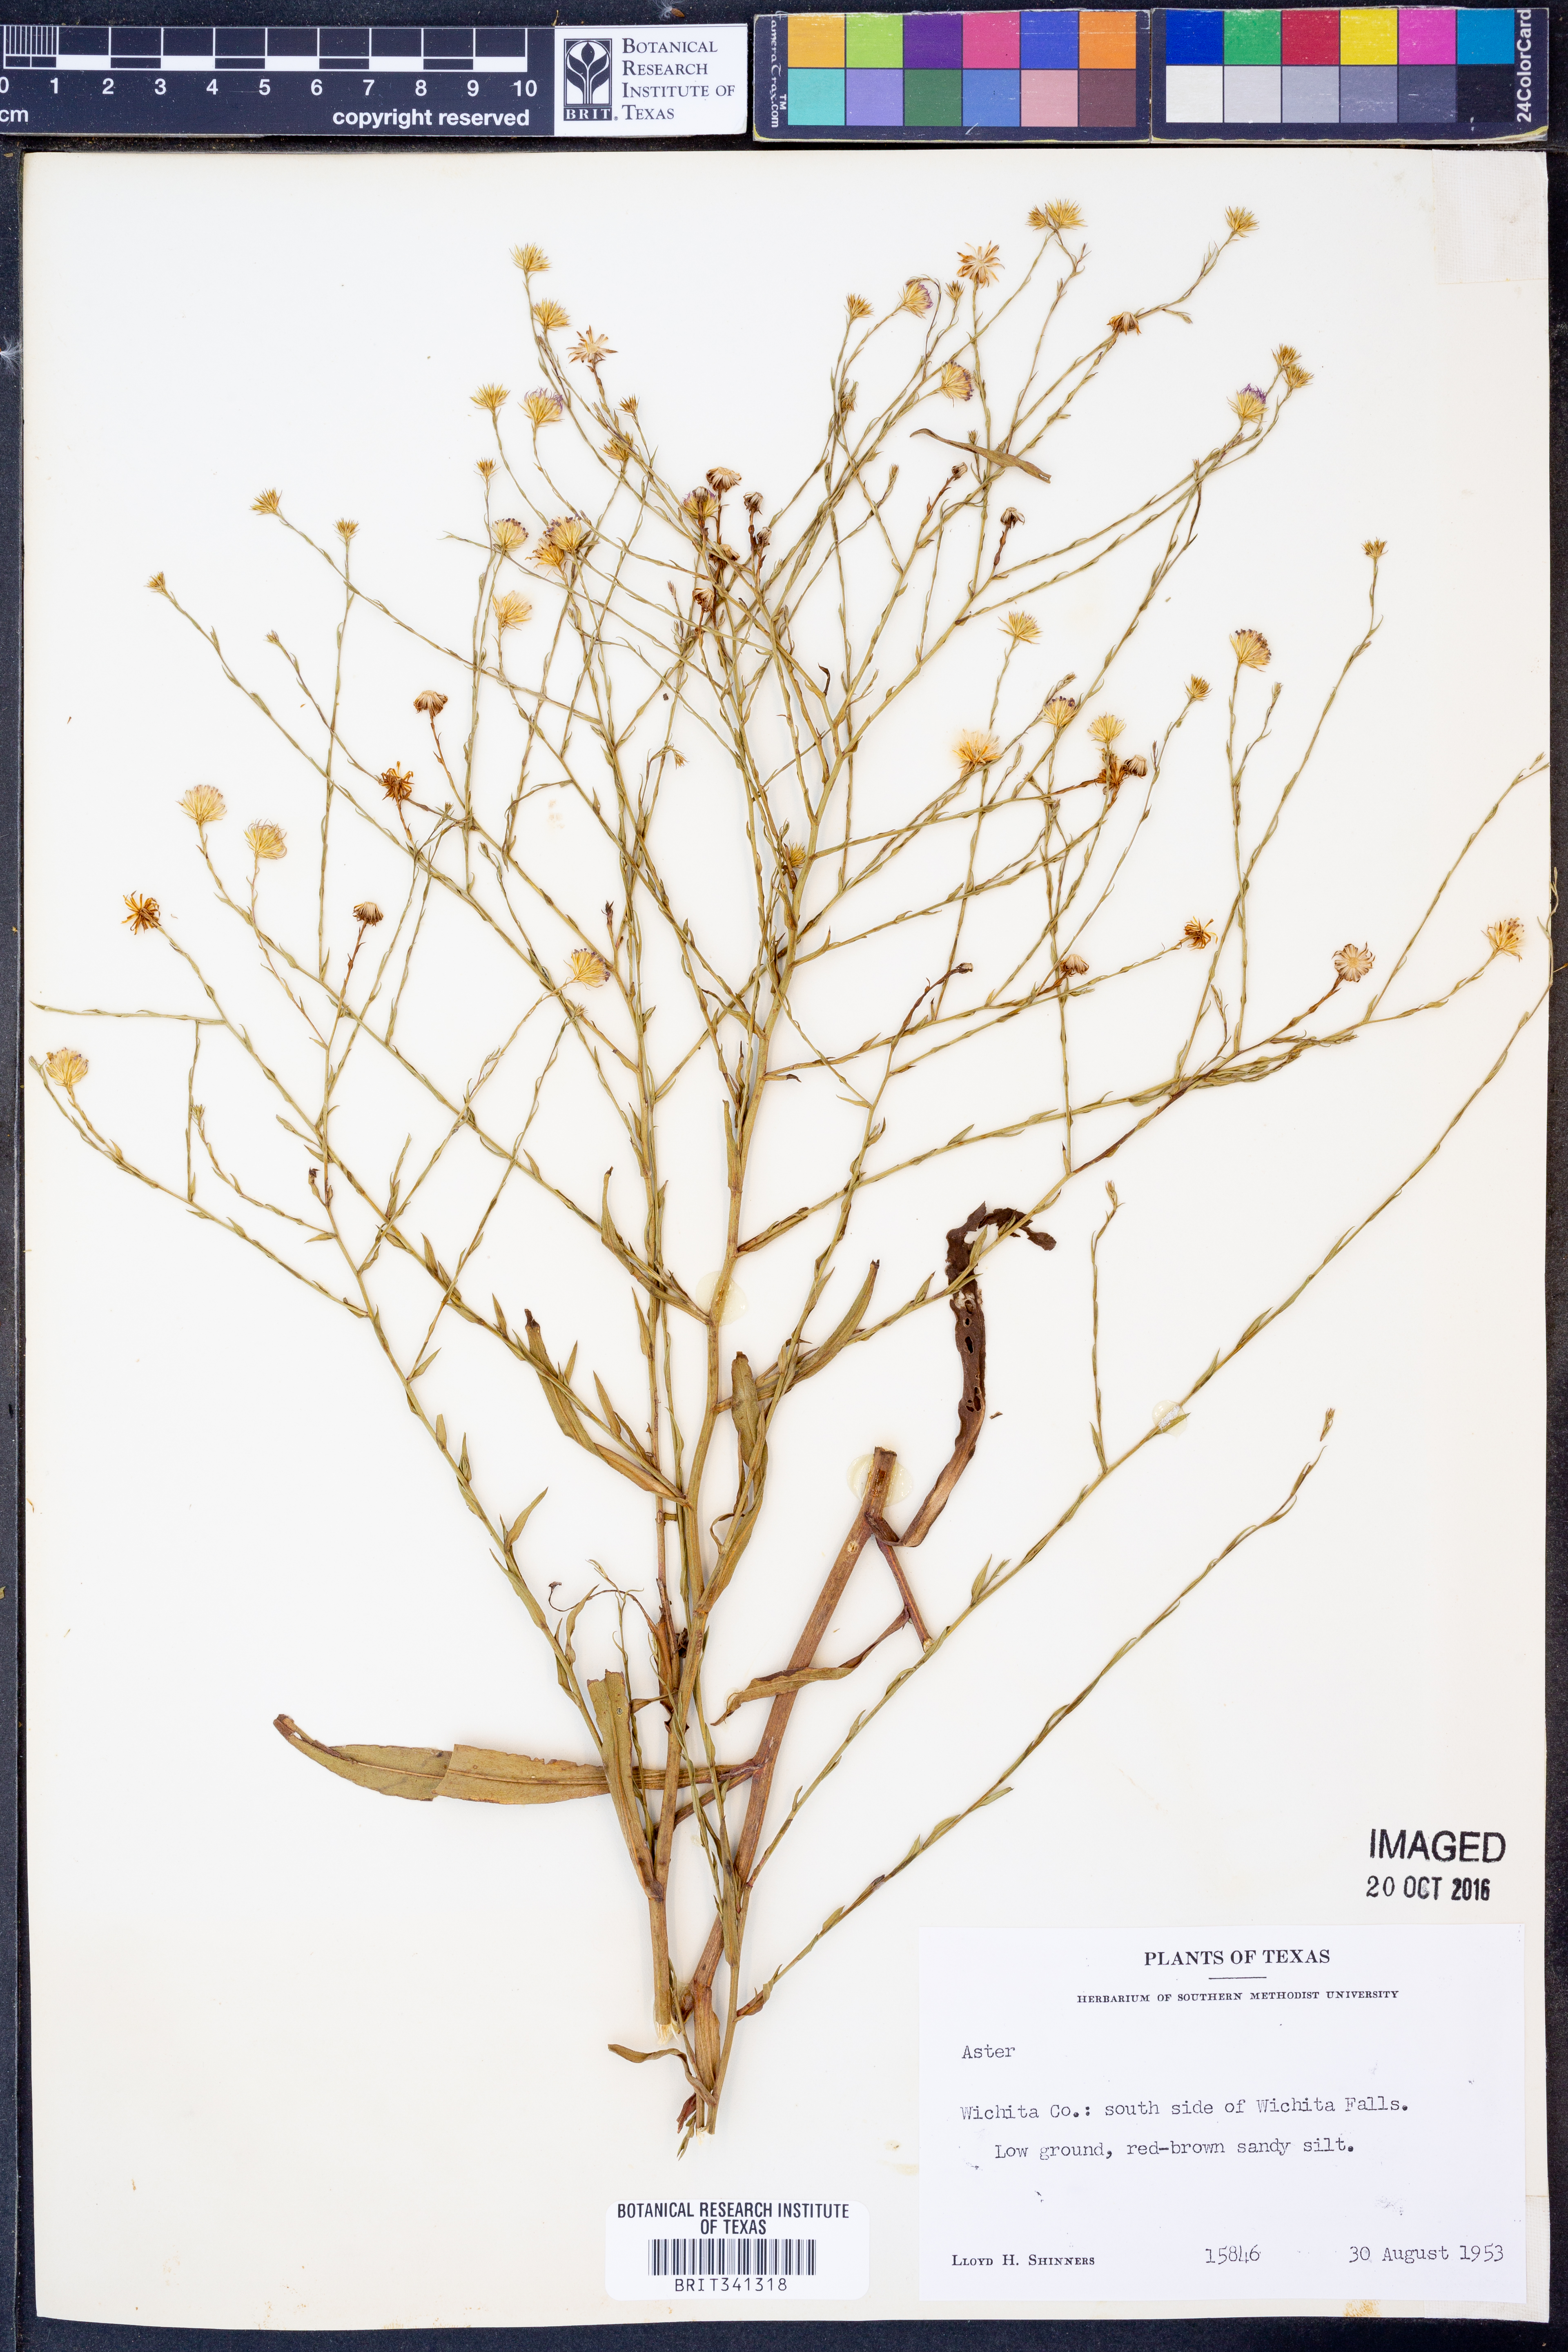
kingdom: Plantae
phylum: Tracheophyta
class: Magnoliopsida
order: Asterales
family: Asteraceae
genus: Aster
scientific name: Aster
